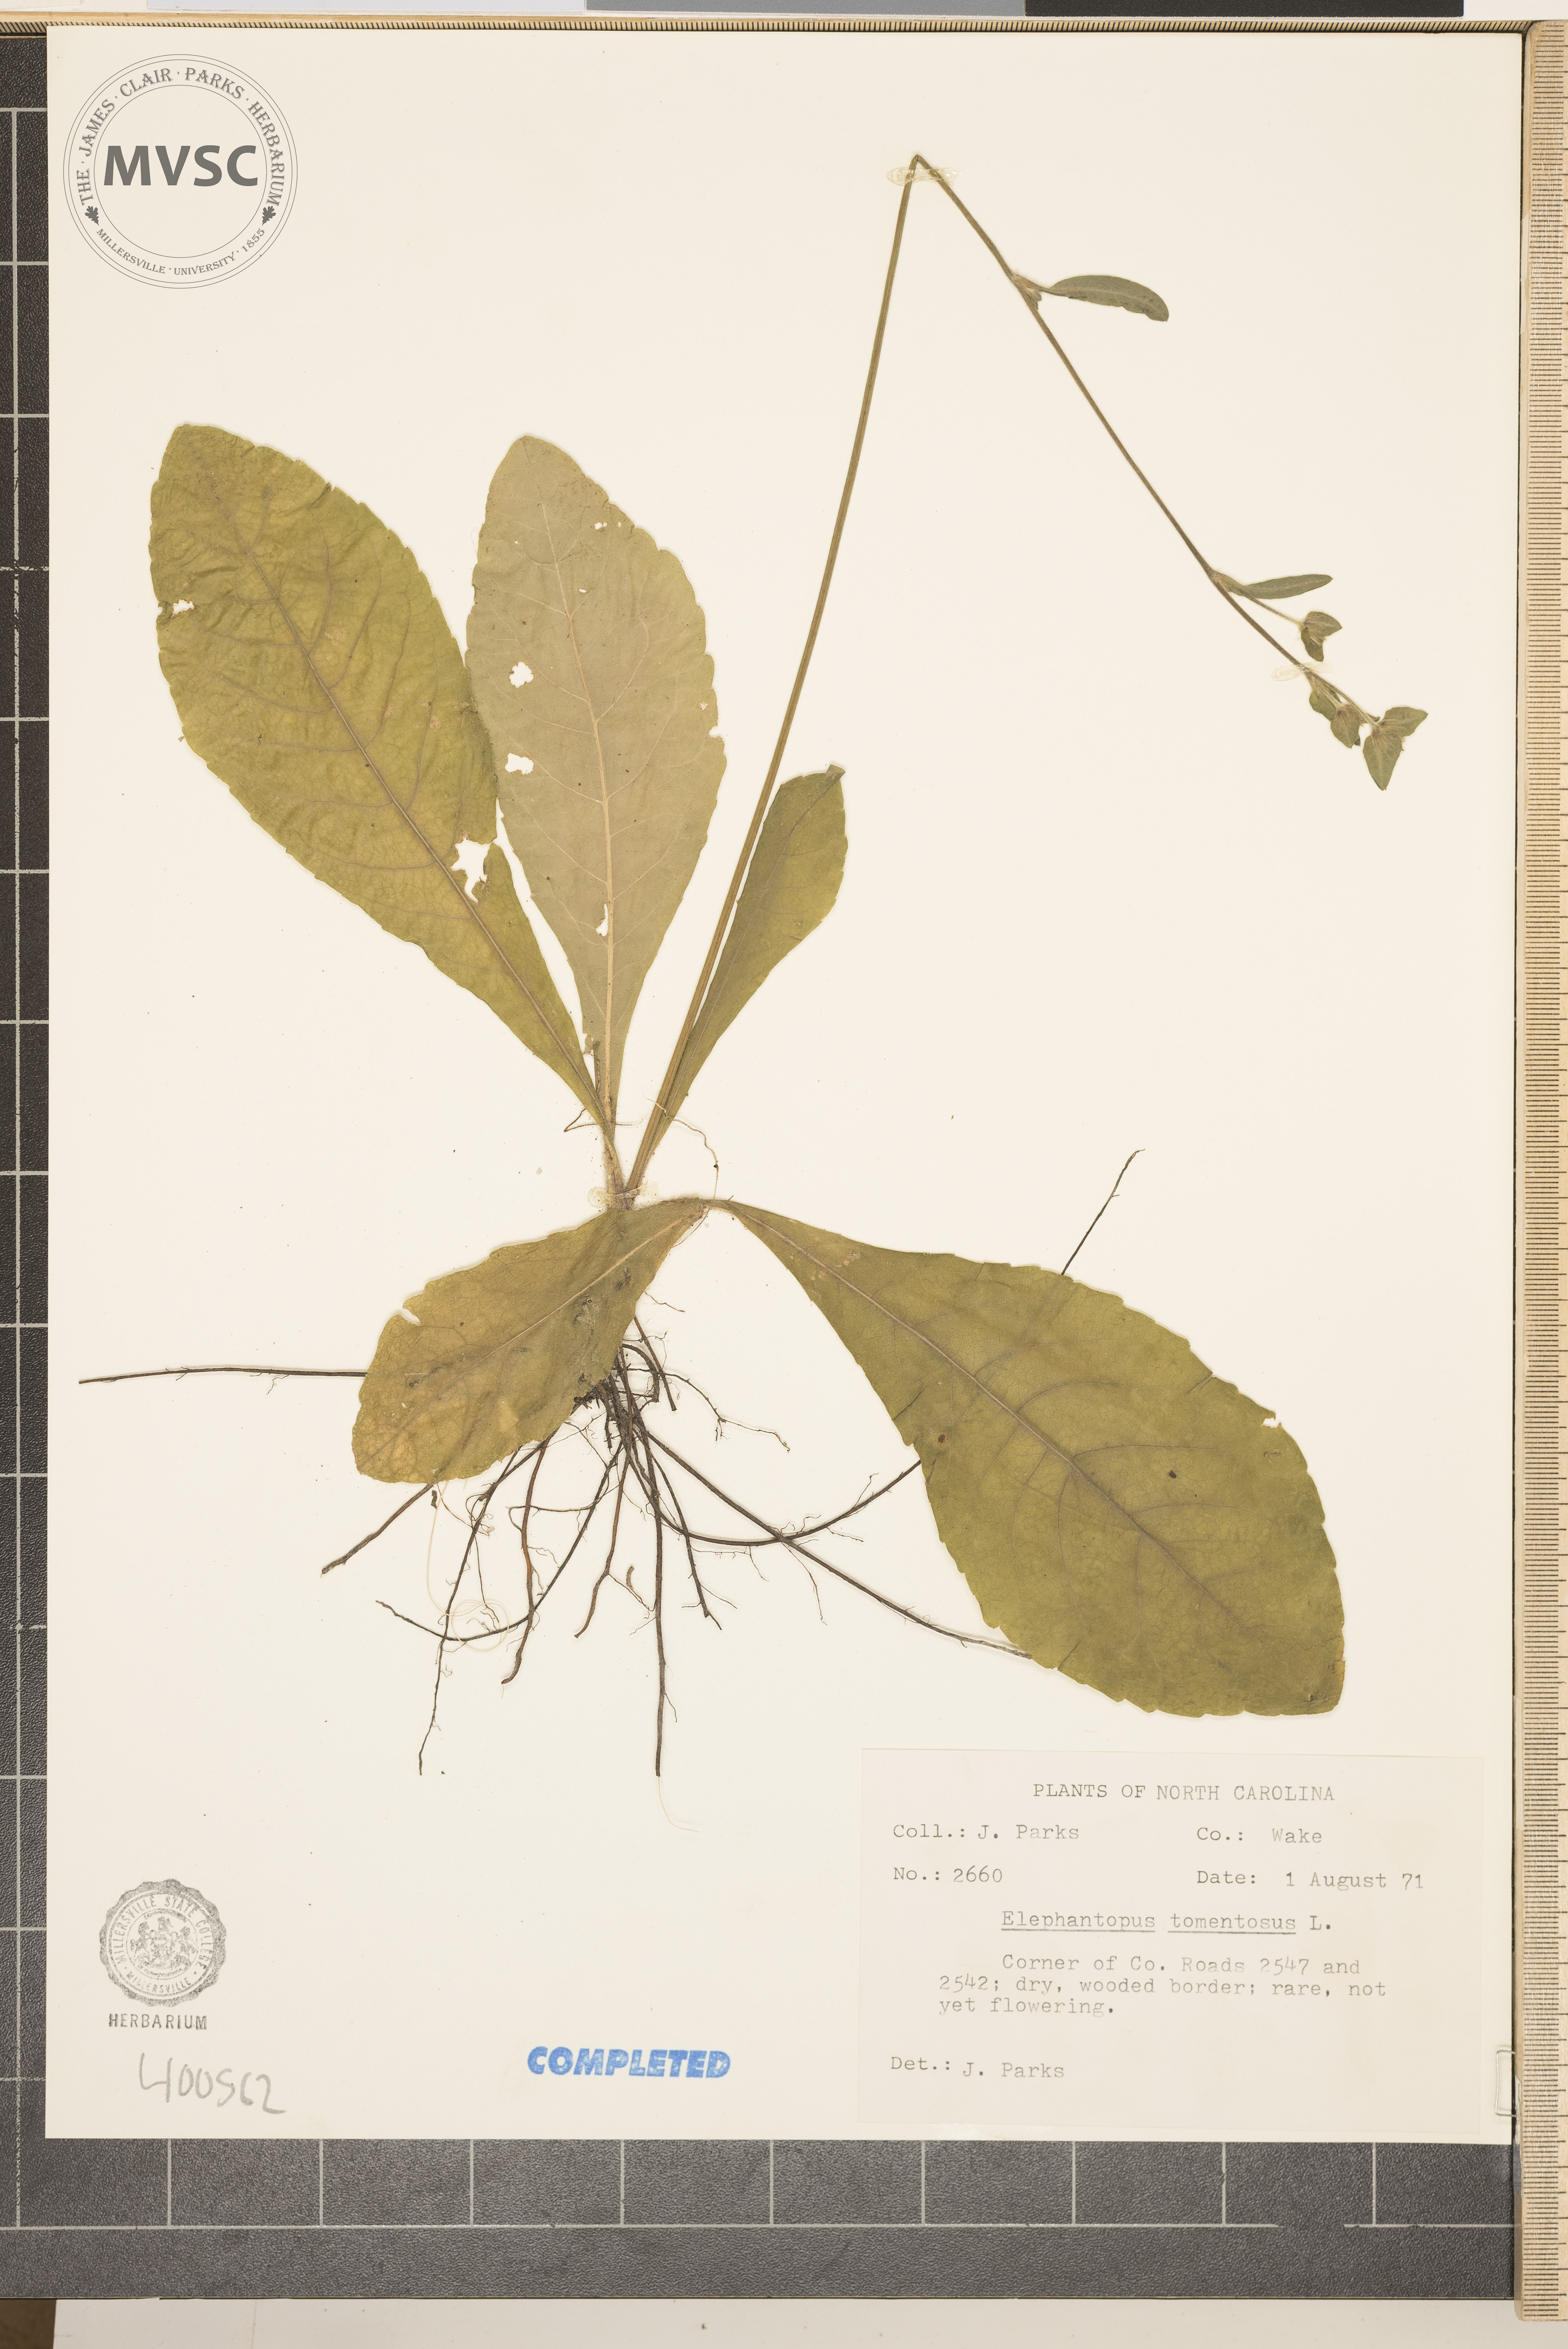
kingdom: Plantae
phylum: Tracheophyta
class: Magnoliopsida
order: Asterales
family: Asteraceae
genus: Elephantopus
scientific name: Elephantopus tomentosus
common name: Tobacco-weed
